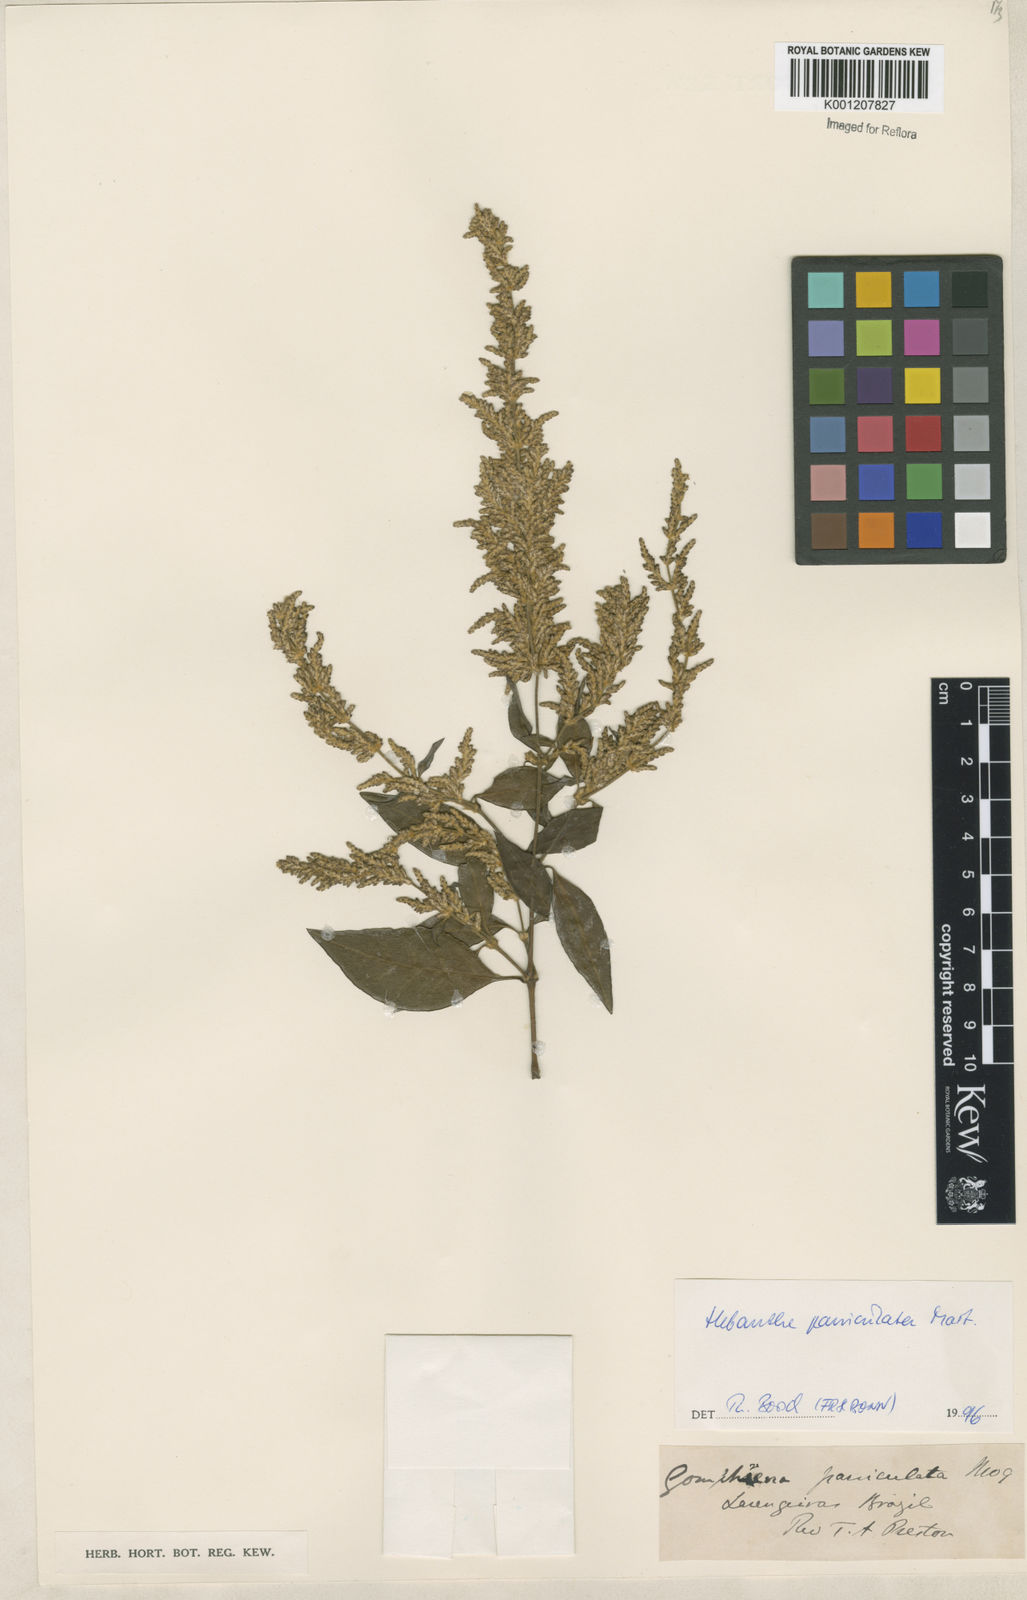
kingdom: Plantae
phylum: Tracheophyta
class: Magnoliopsida
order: Caryophyllales
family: Amaranthaceae
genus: Hebanthe
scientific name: Hebanthe erianthos
